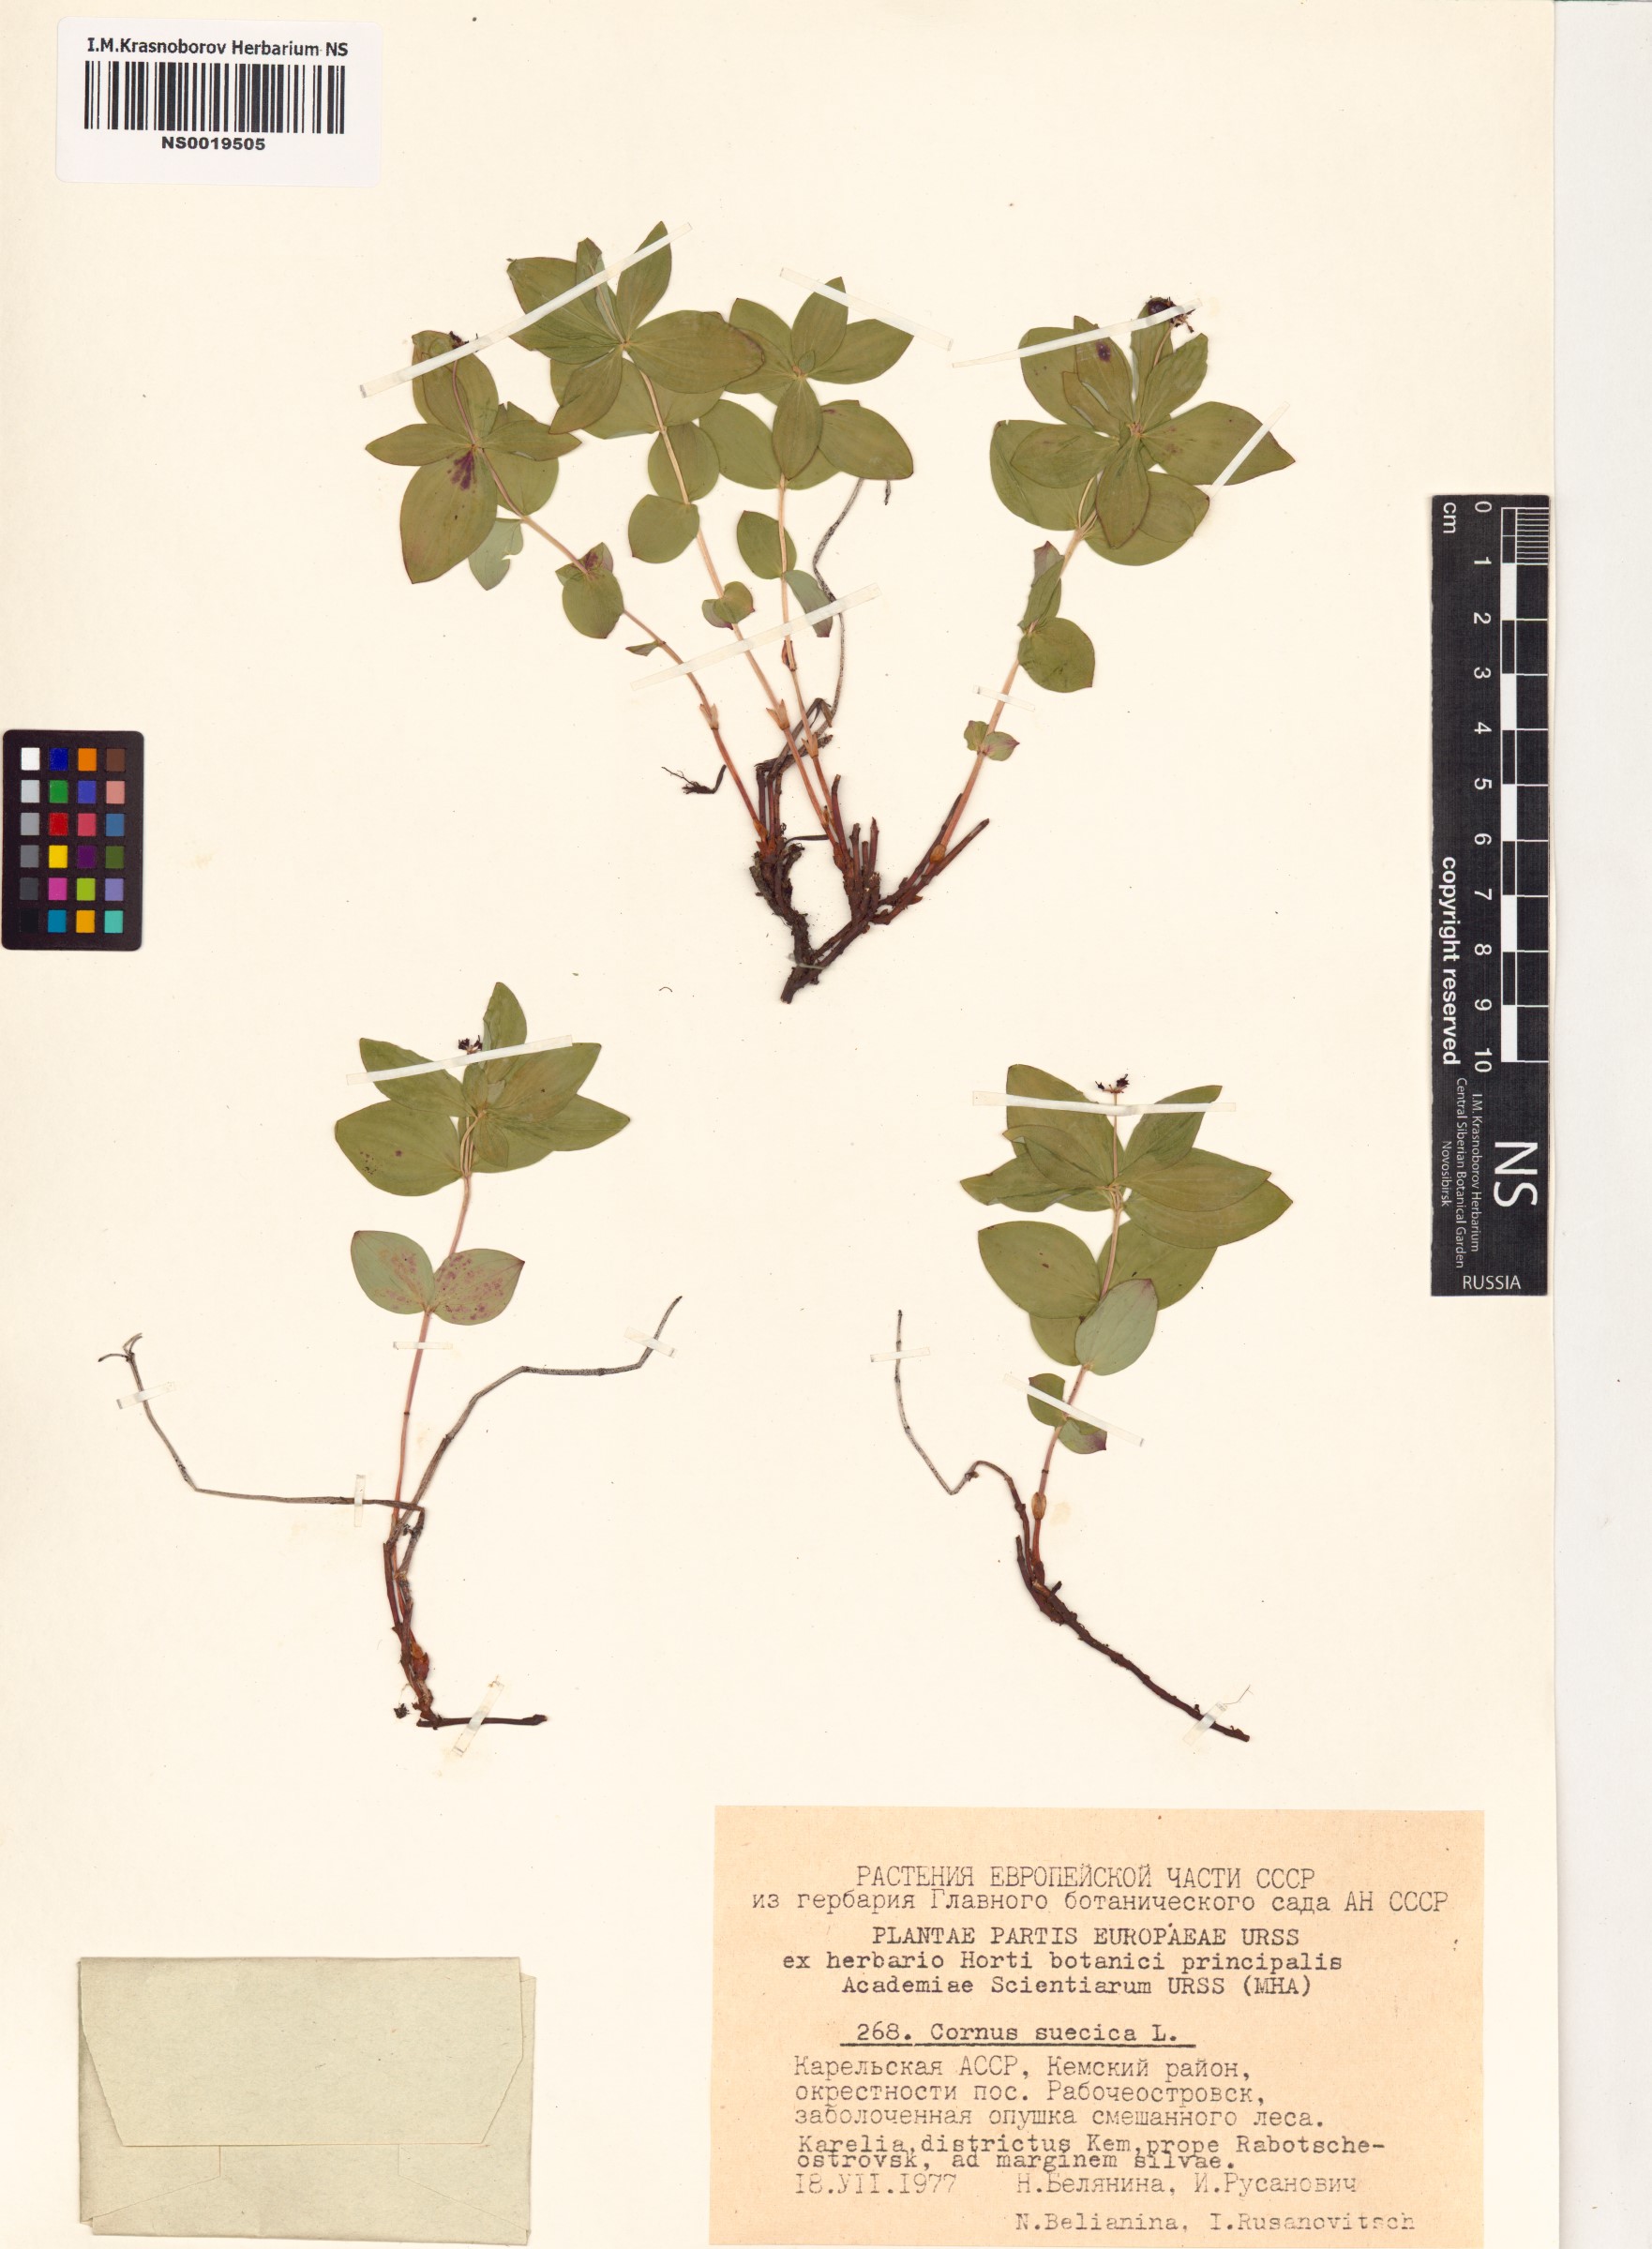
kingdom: Plantae
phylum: Tracheophyta
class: Magnoliopsida
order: Cornales
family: Cornaceae
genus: Cornus
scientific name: Cornus suecica
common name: Dwarf cornel
